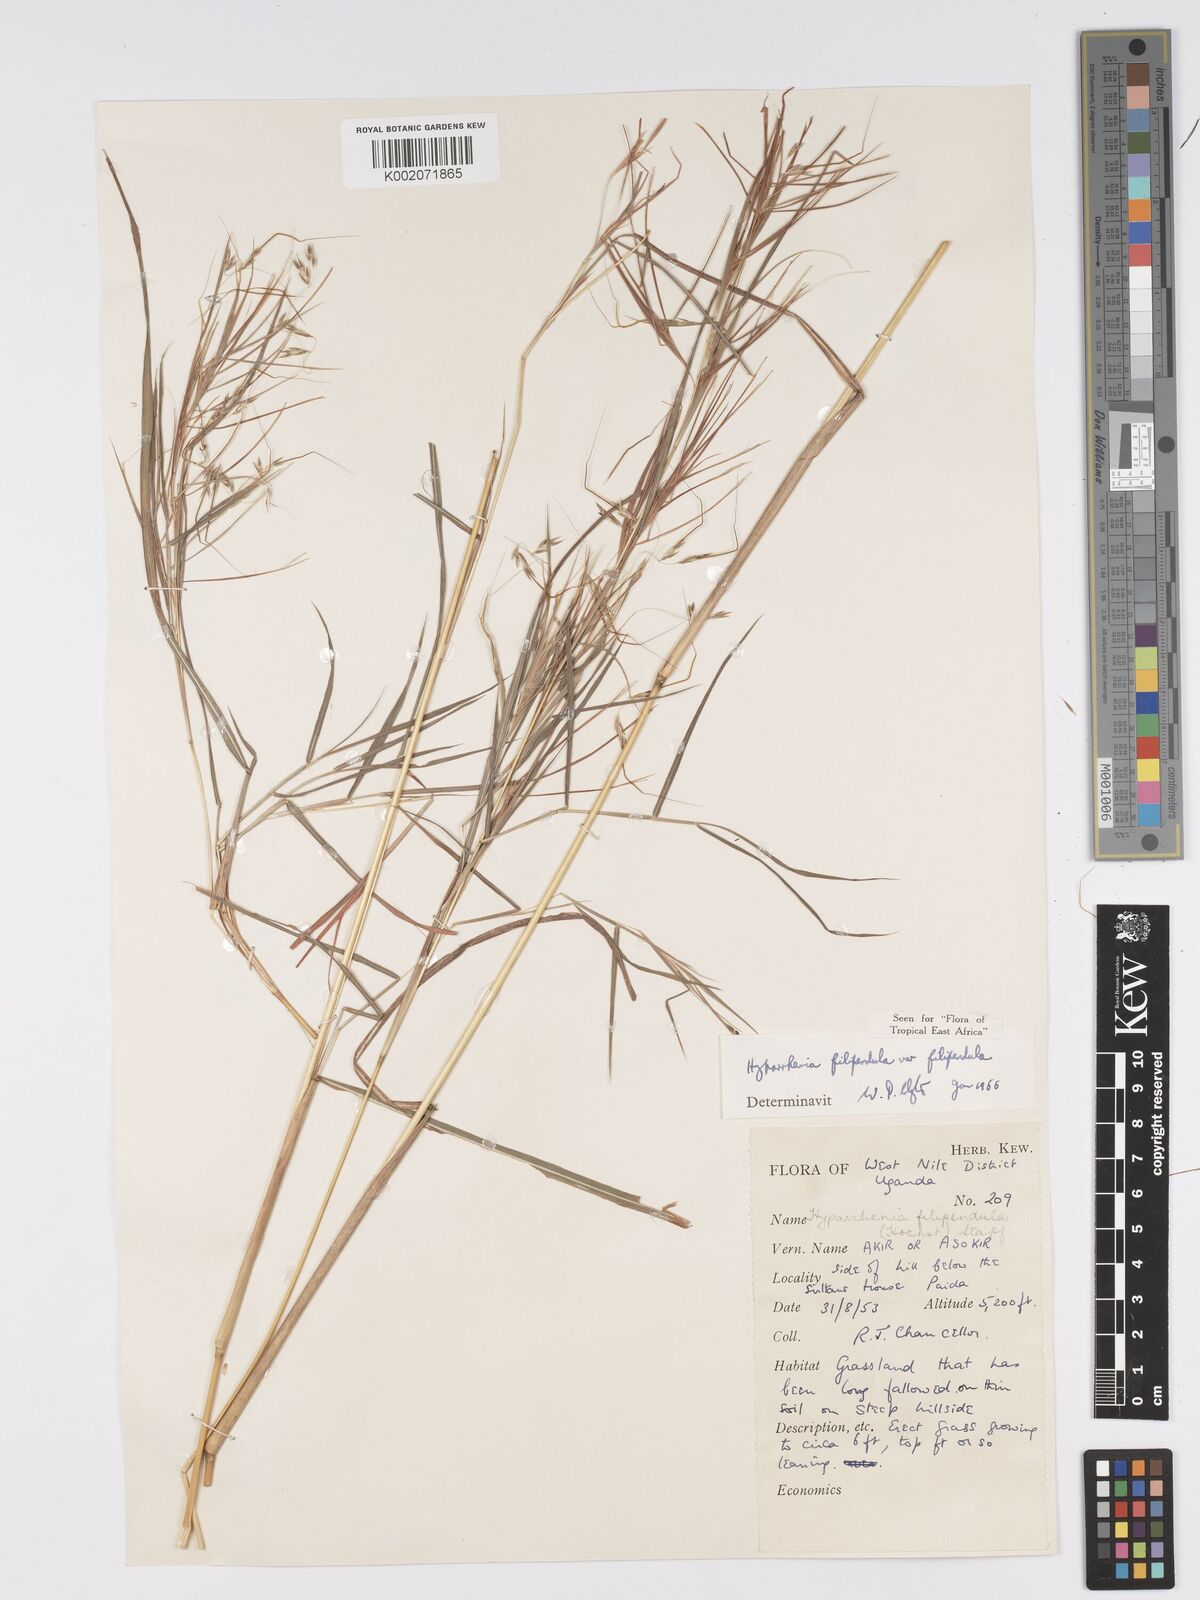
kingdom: Plantae
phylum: Tracheophyta
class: Liliopsida
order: Poales
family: Poaceae
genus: Hyparrhenia
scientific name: Hyparrhenia filipendula
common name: Tambookie grass
